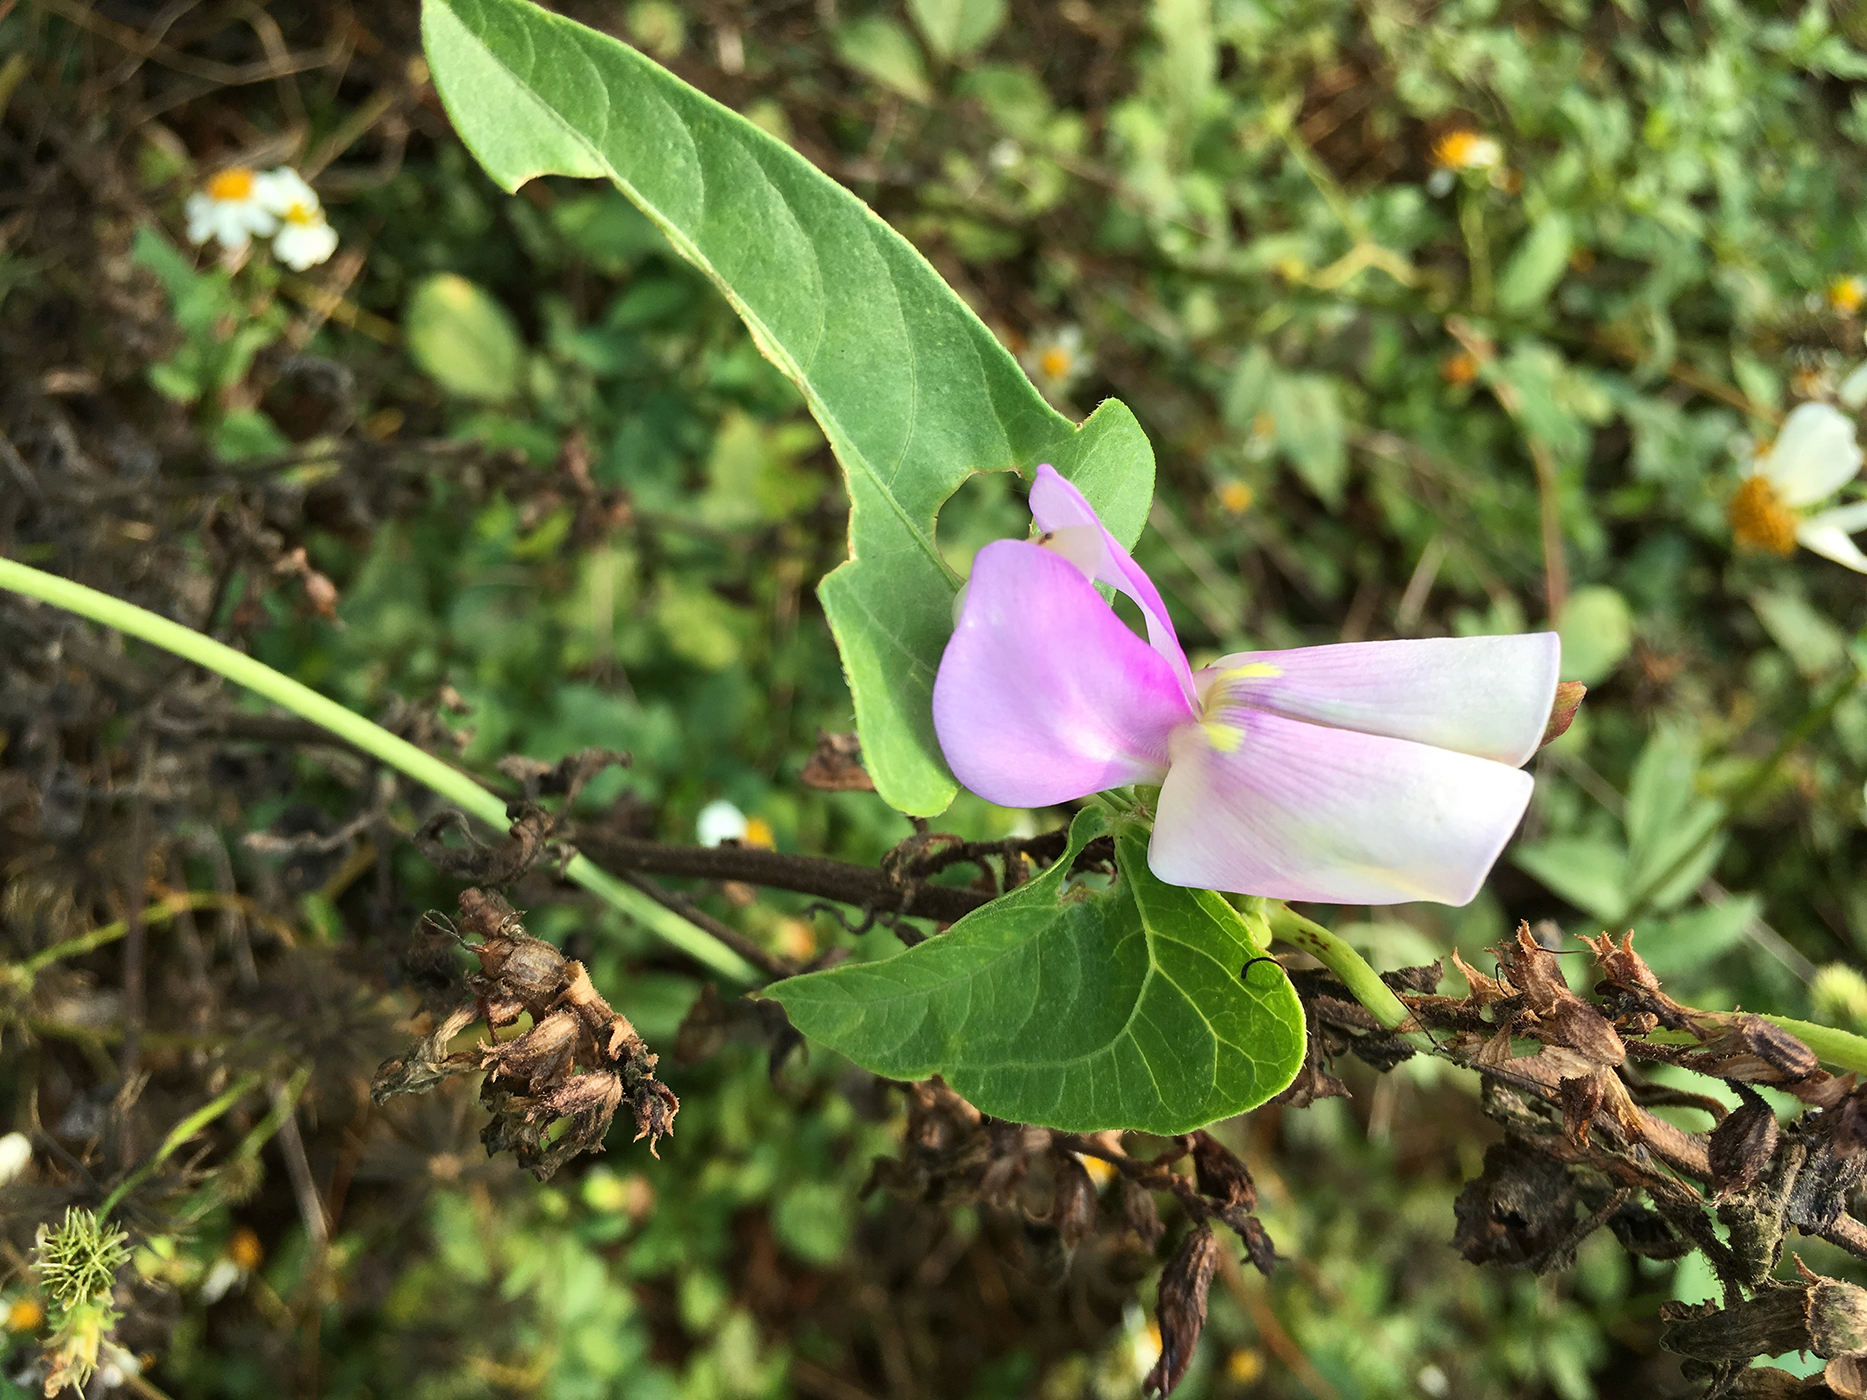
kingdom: Plantae
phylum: Tracheophyta
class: Magnoliopsida
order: Fabales
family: Fabaceae
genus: Vigna
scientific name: Vigna unguiculata
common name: Cowpea
